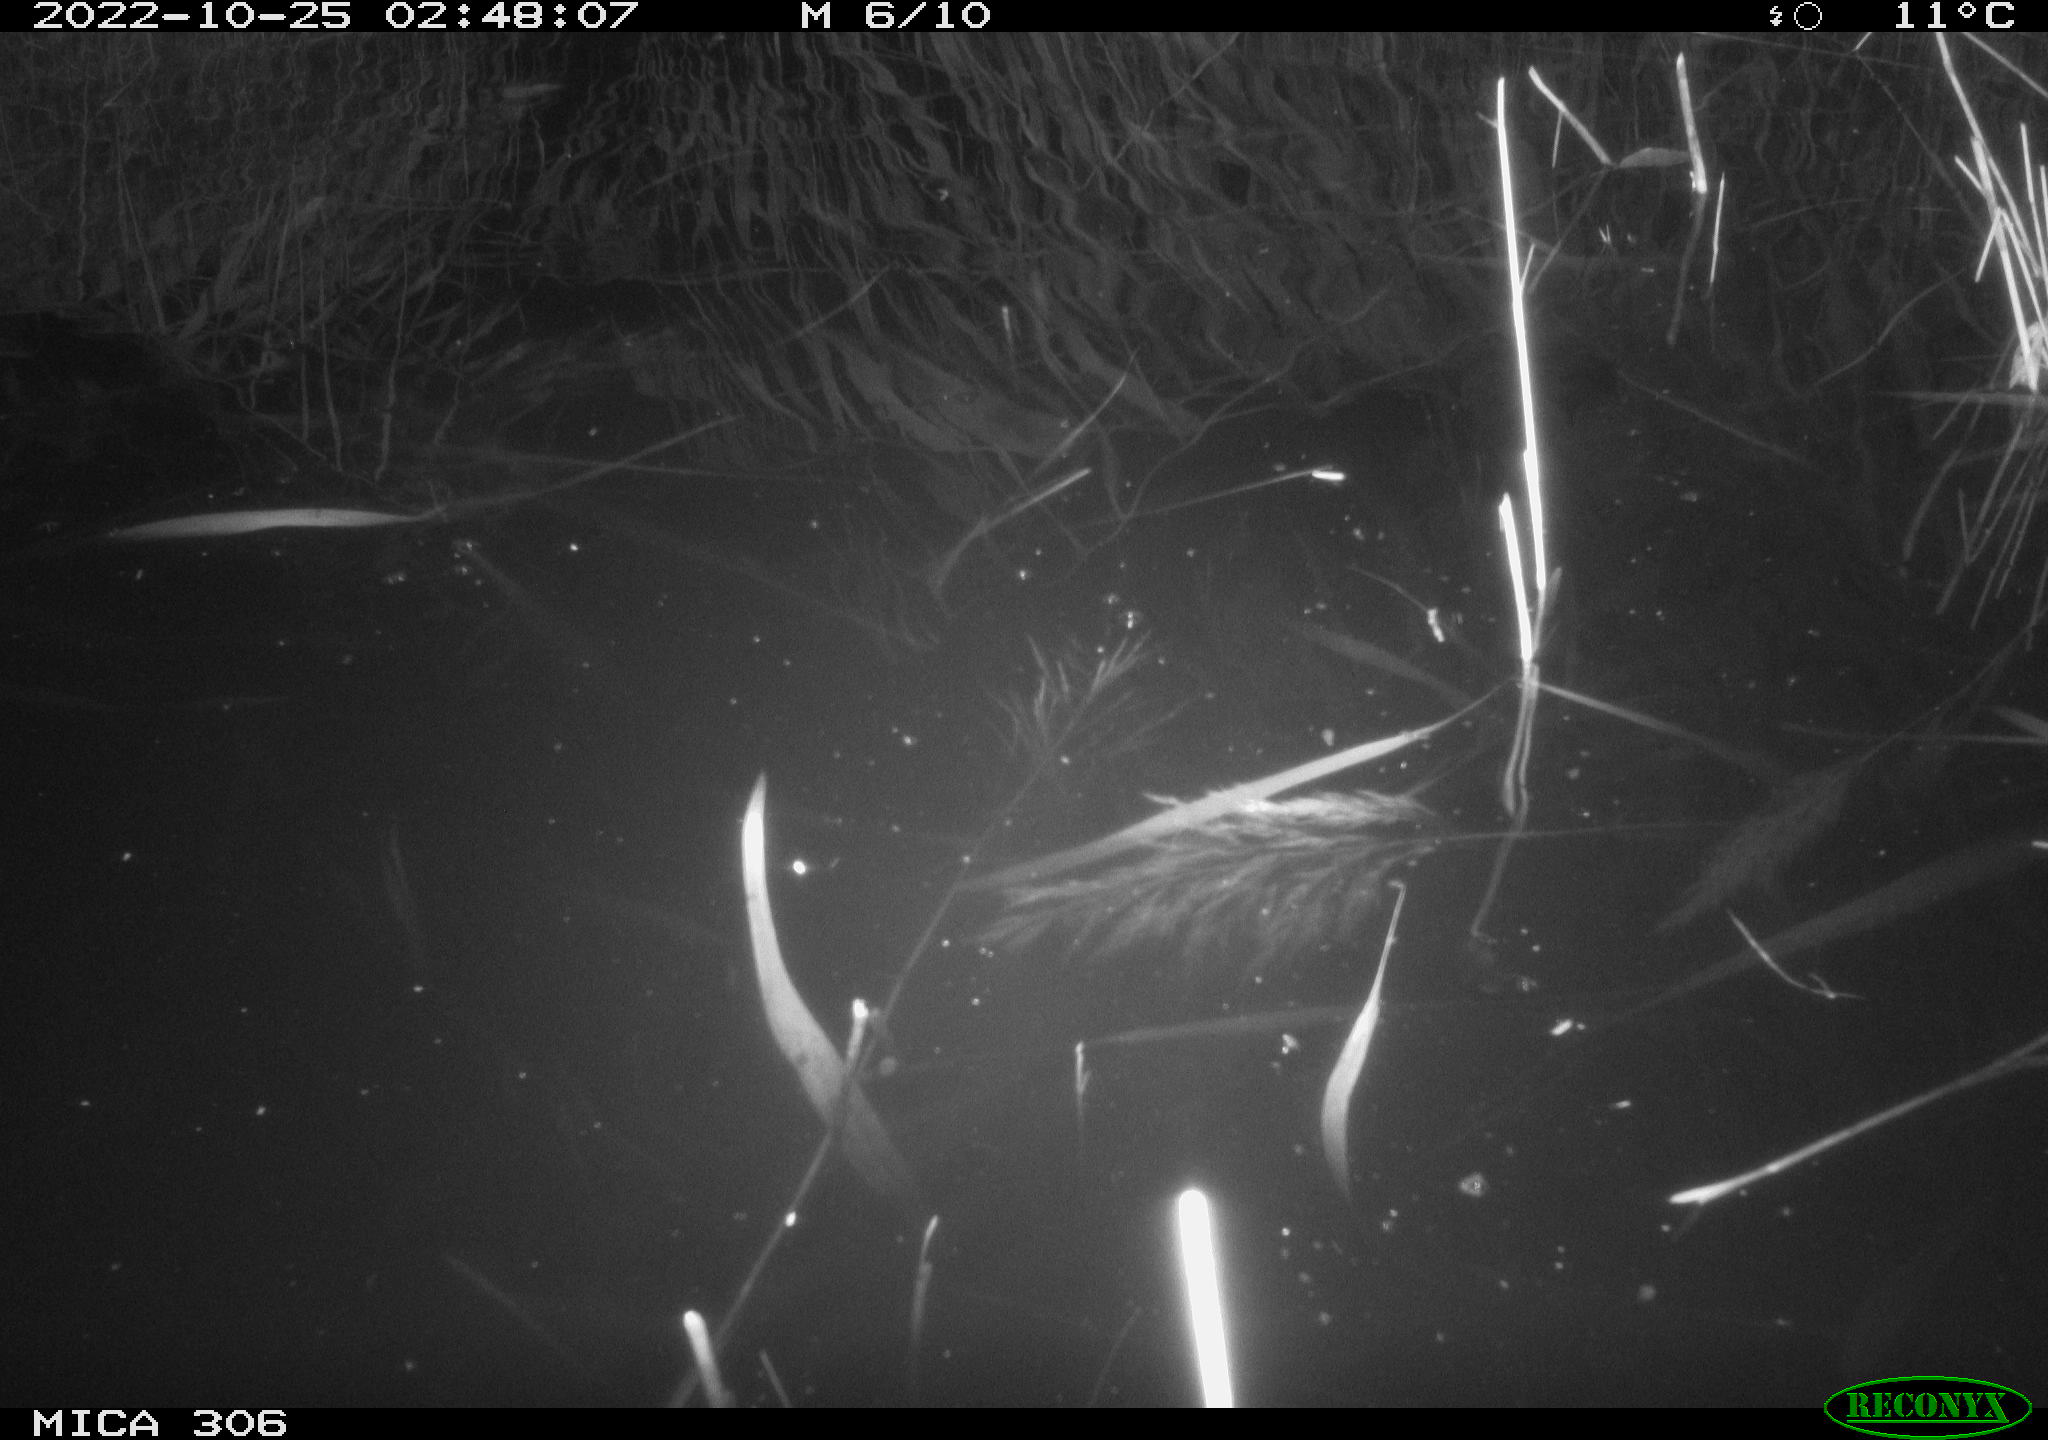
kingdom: Animalia
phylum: Chordata
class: Mammalia
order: Rodentia
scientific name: Rodentia
